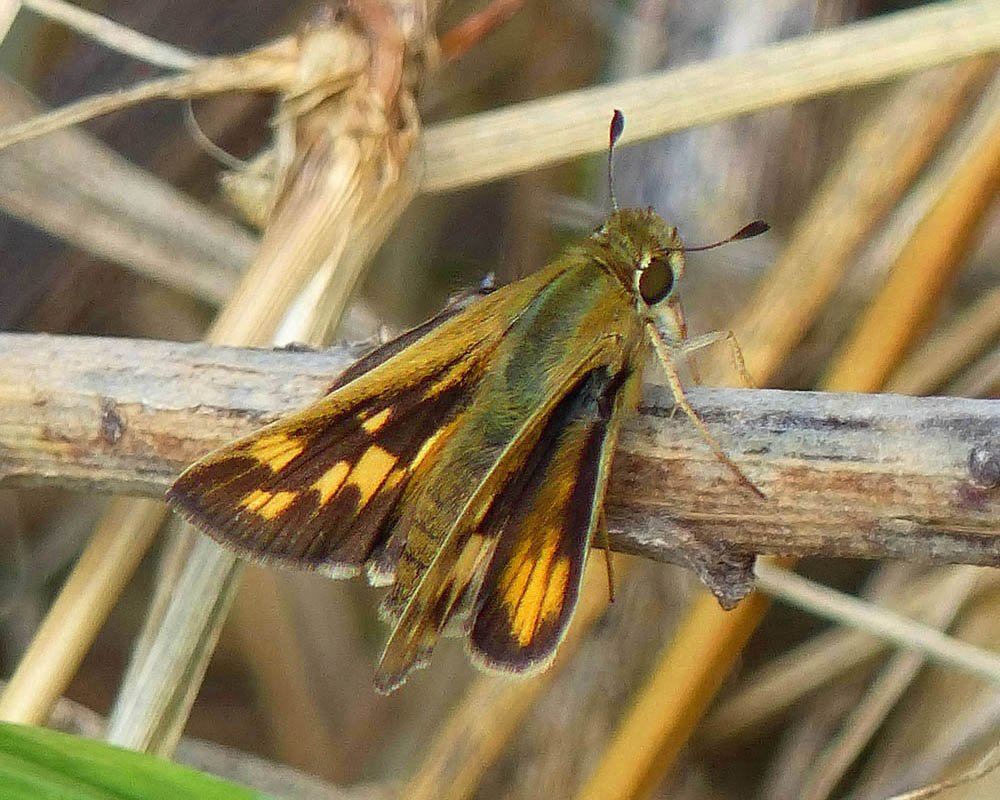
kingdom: Animalia
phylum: Arthropoda
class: Insecta
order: Lepidoptera
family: Hesperiidae
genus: Hylephila
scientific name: Hylephila phyleus
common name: Fiery Skipper
